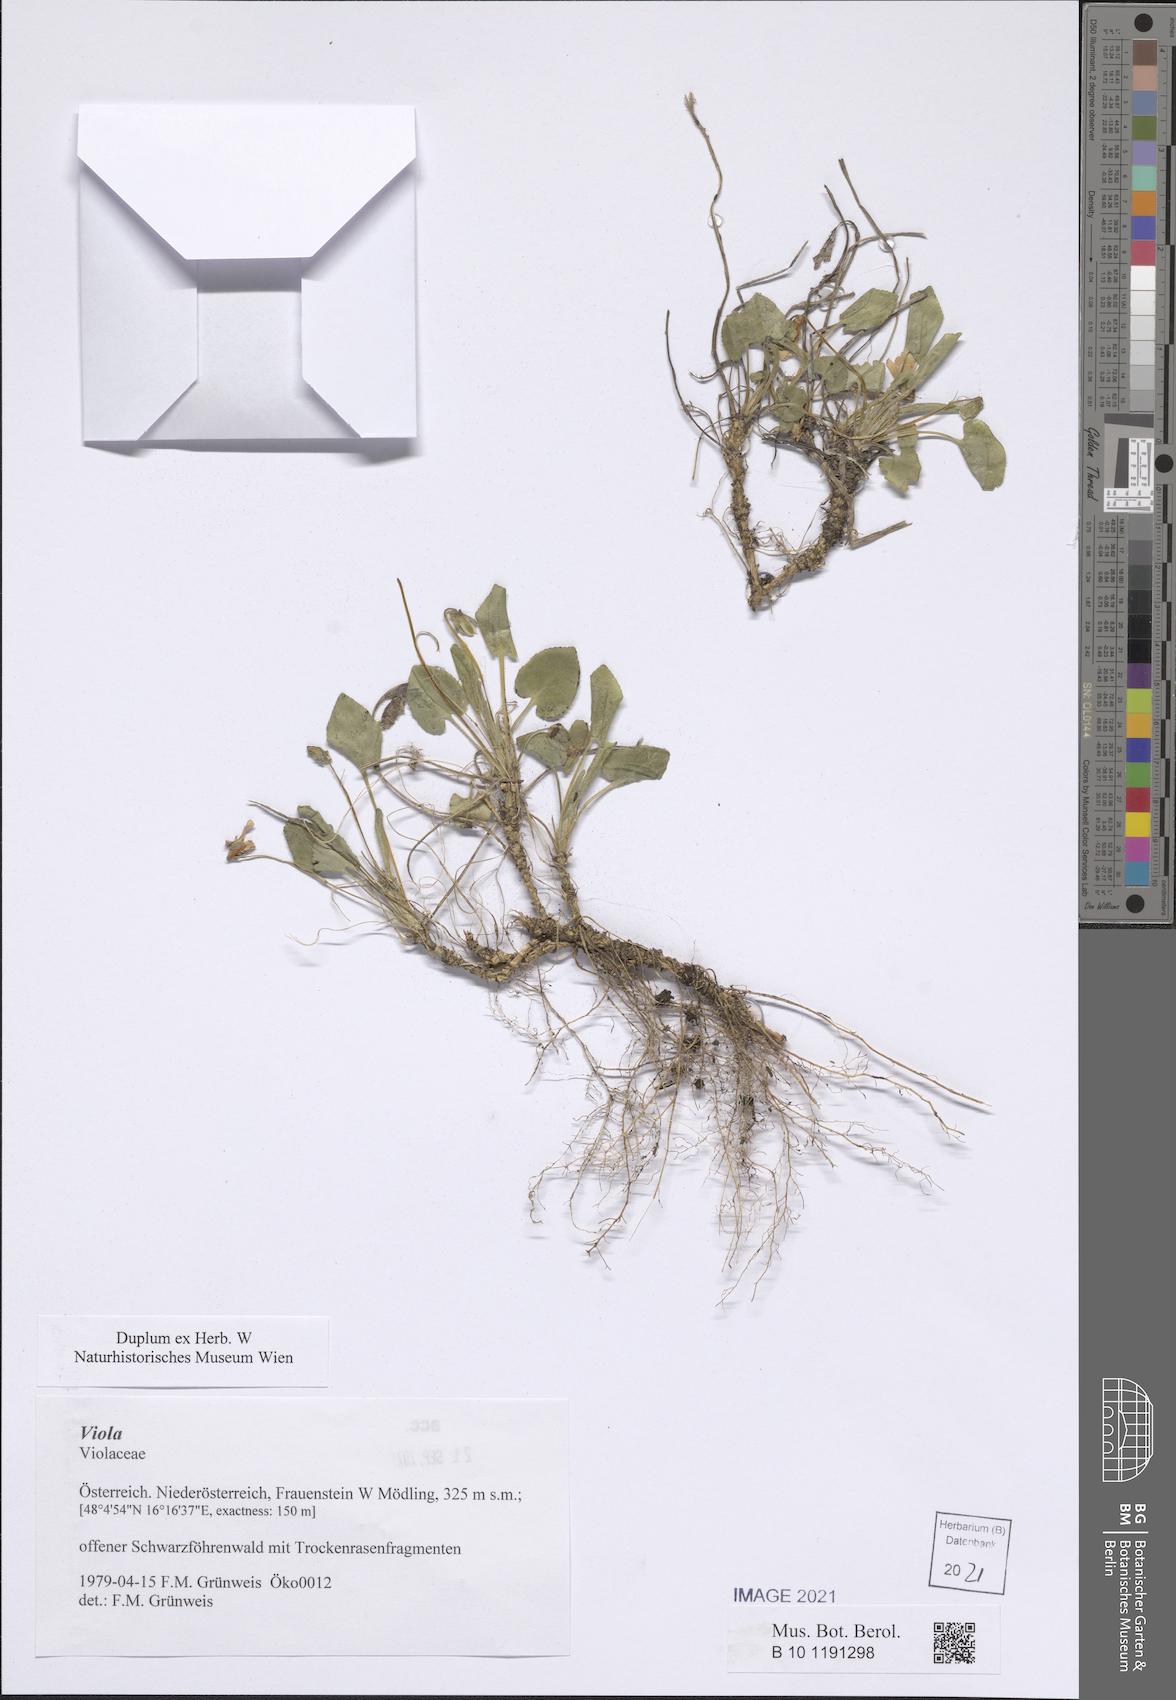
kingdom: Plantae
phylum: Tracheophyta
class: Magnoliopsida
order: Malpighiales
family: Violaceae
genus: Viola
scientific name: Viola
